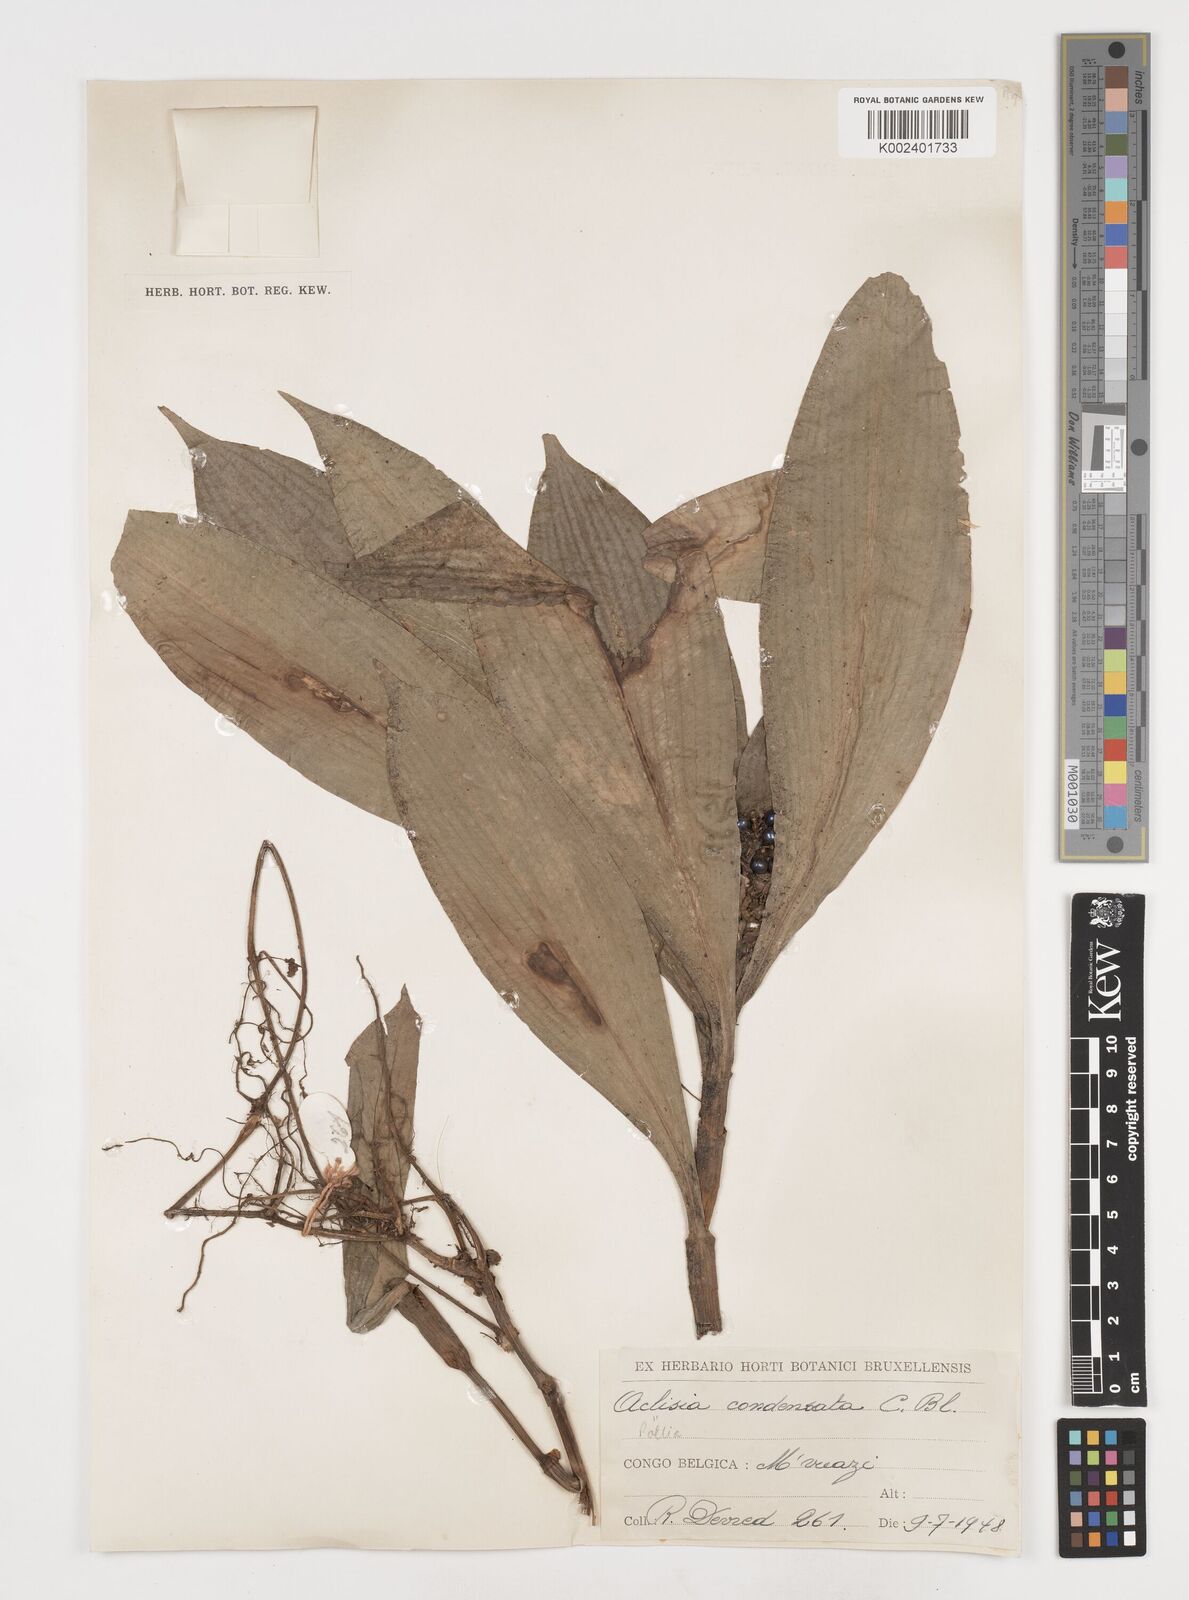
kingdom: Plantae
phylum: Tracheophyta
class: Liliopsida
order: Commelinales
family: Commelinaceae
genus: Pollia
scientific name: Pollia condensata
